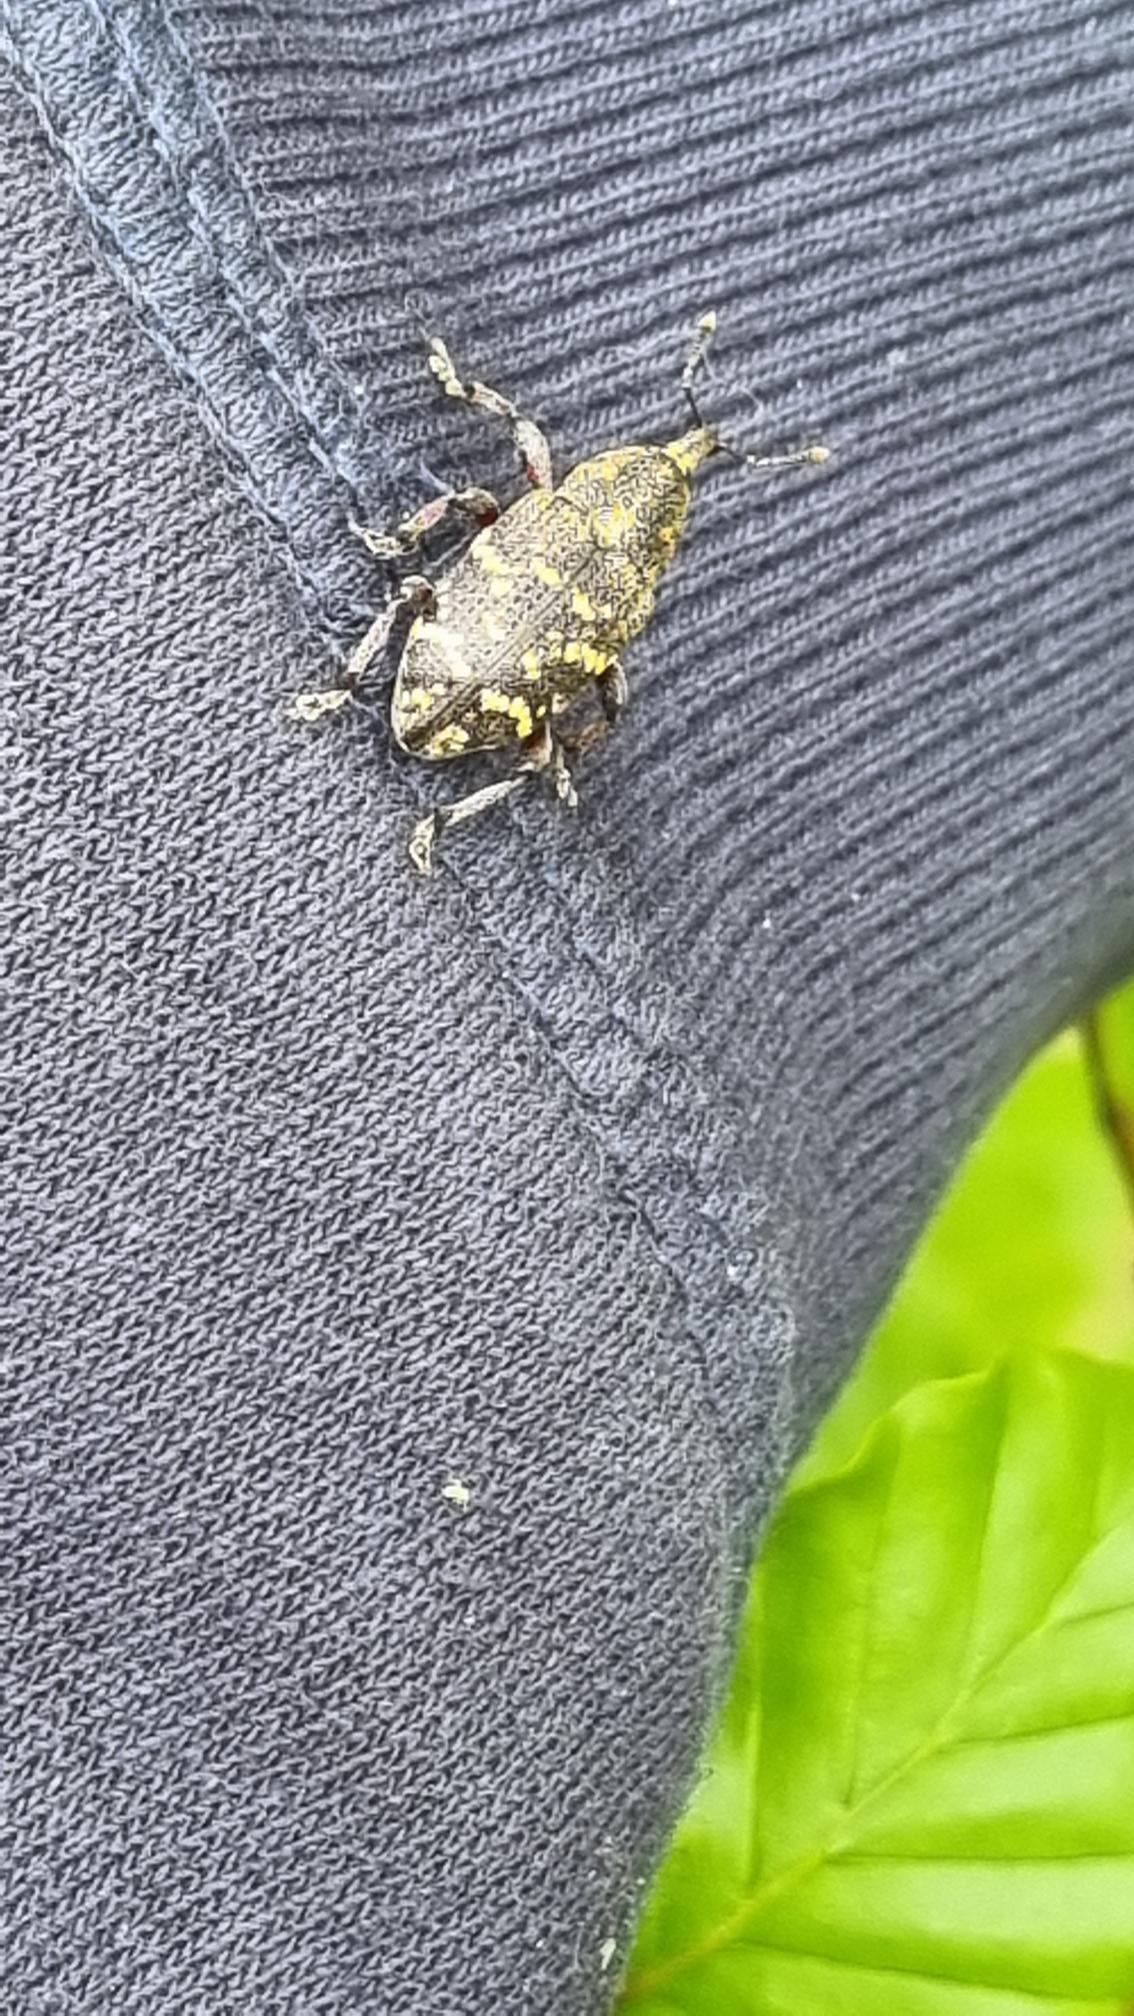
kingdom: Animalia
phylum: Arthropoda
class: Insecta
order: Coleoptera
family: Curculionidae
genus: Hylobius
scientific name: Hylobius abietis
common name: Stor nåletræsnudebille
